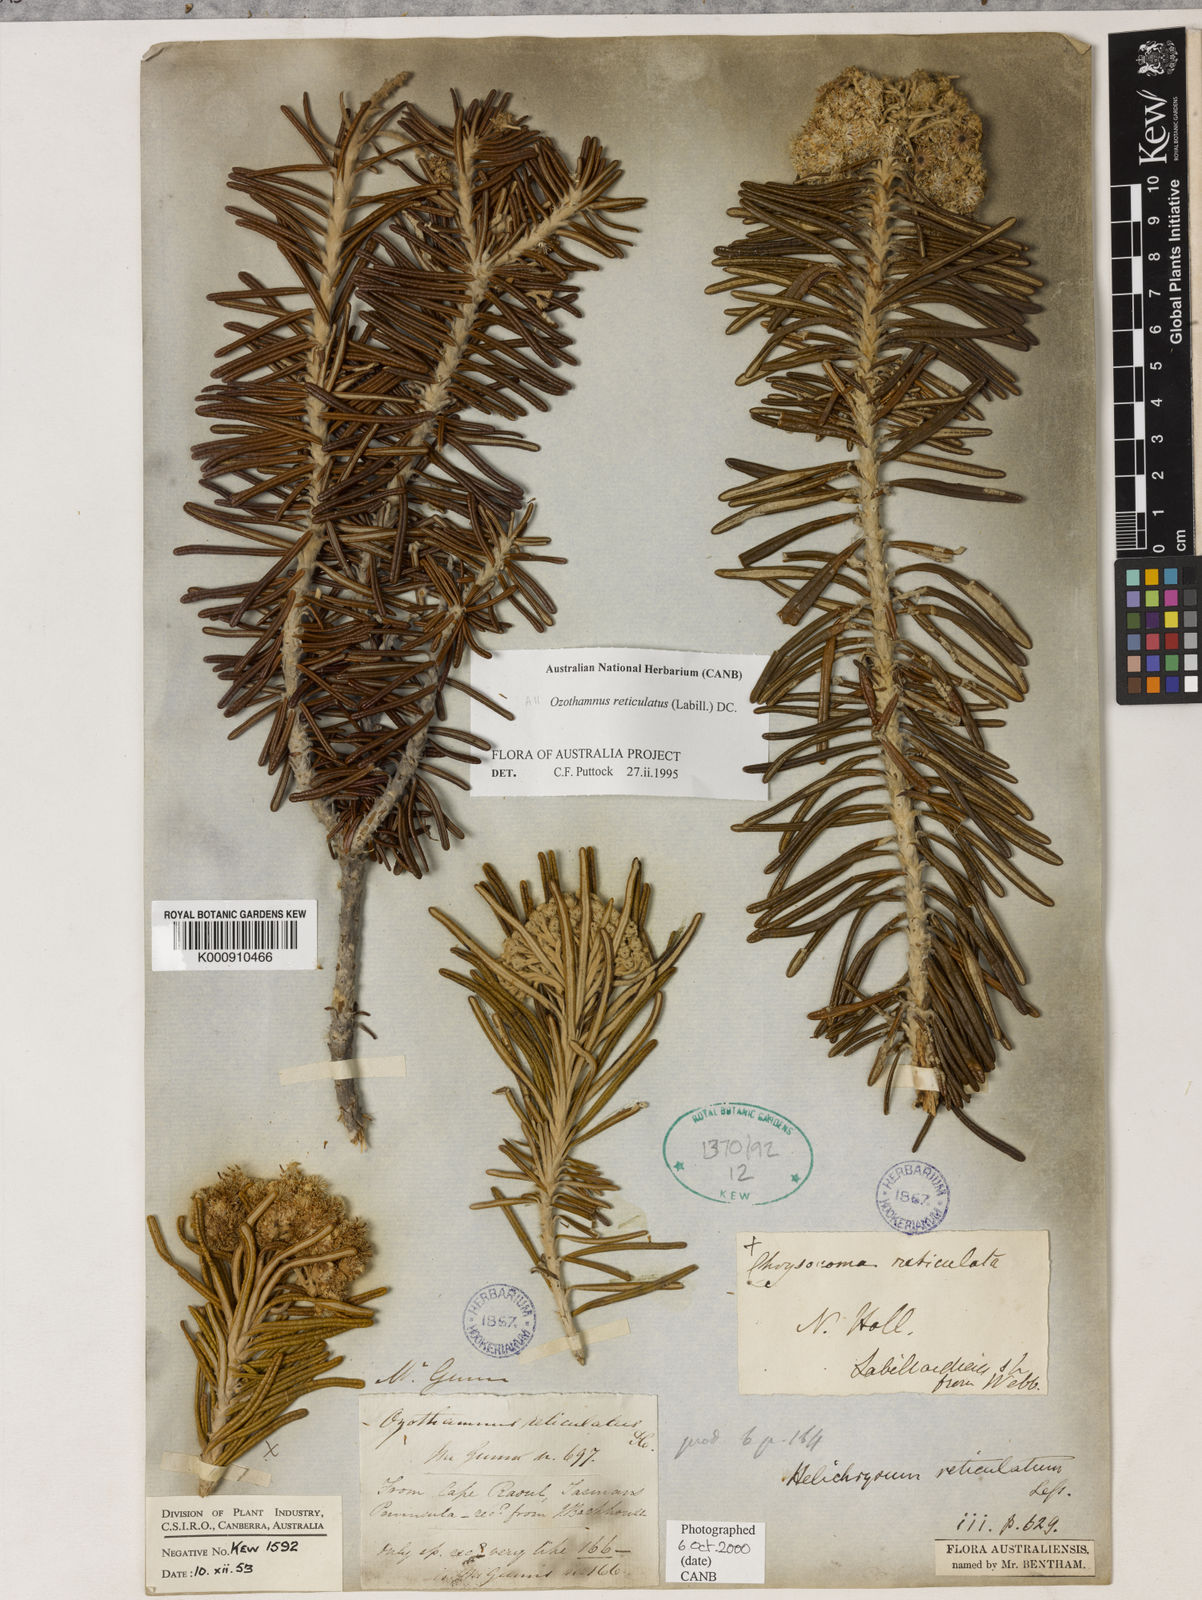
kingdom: Plantae
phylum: Tracheophyta
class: Magnoliopsida
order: Asterales
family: Asteraceae
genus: Ozothamnus
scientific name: Ozothamnus reticulatus
